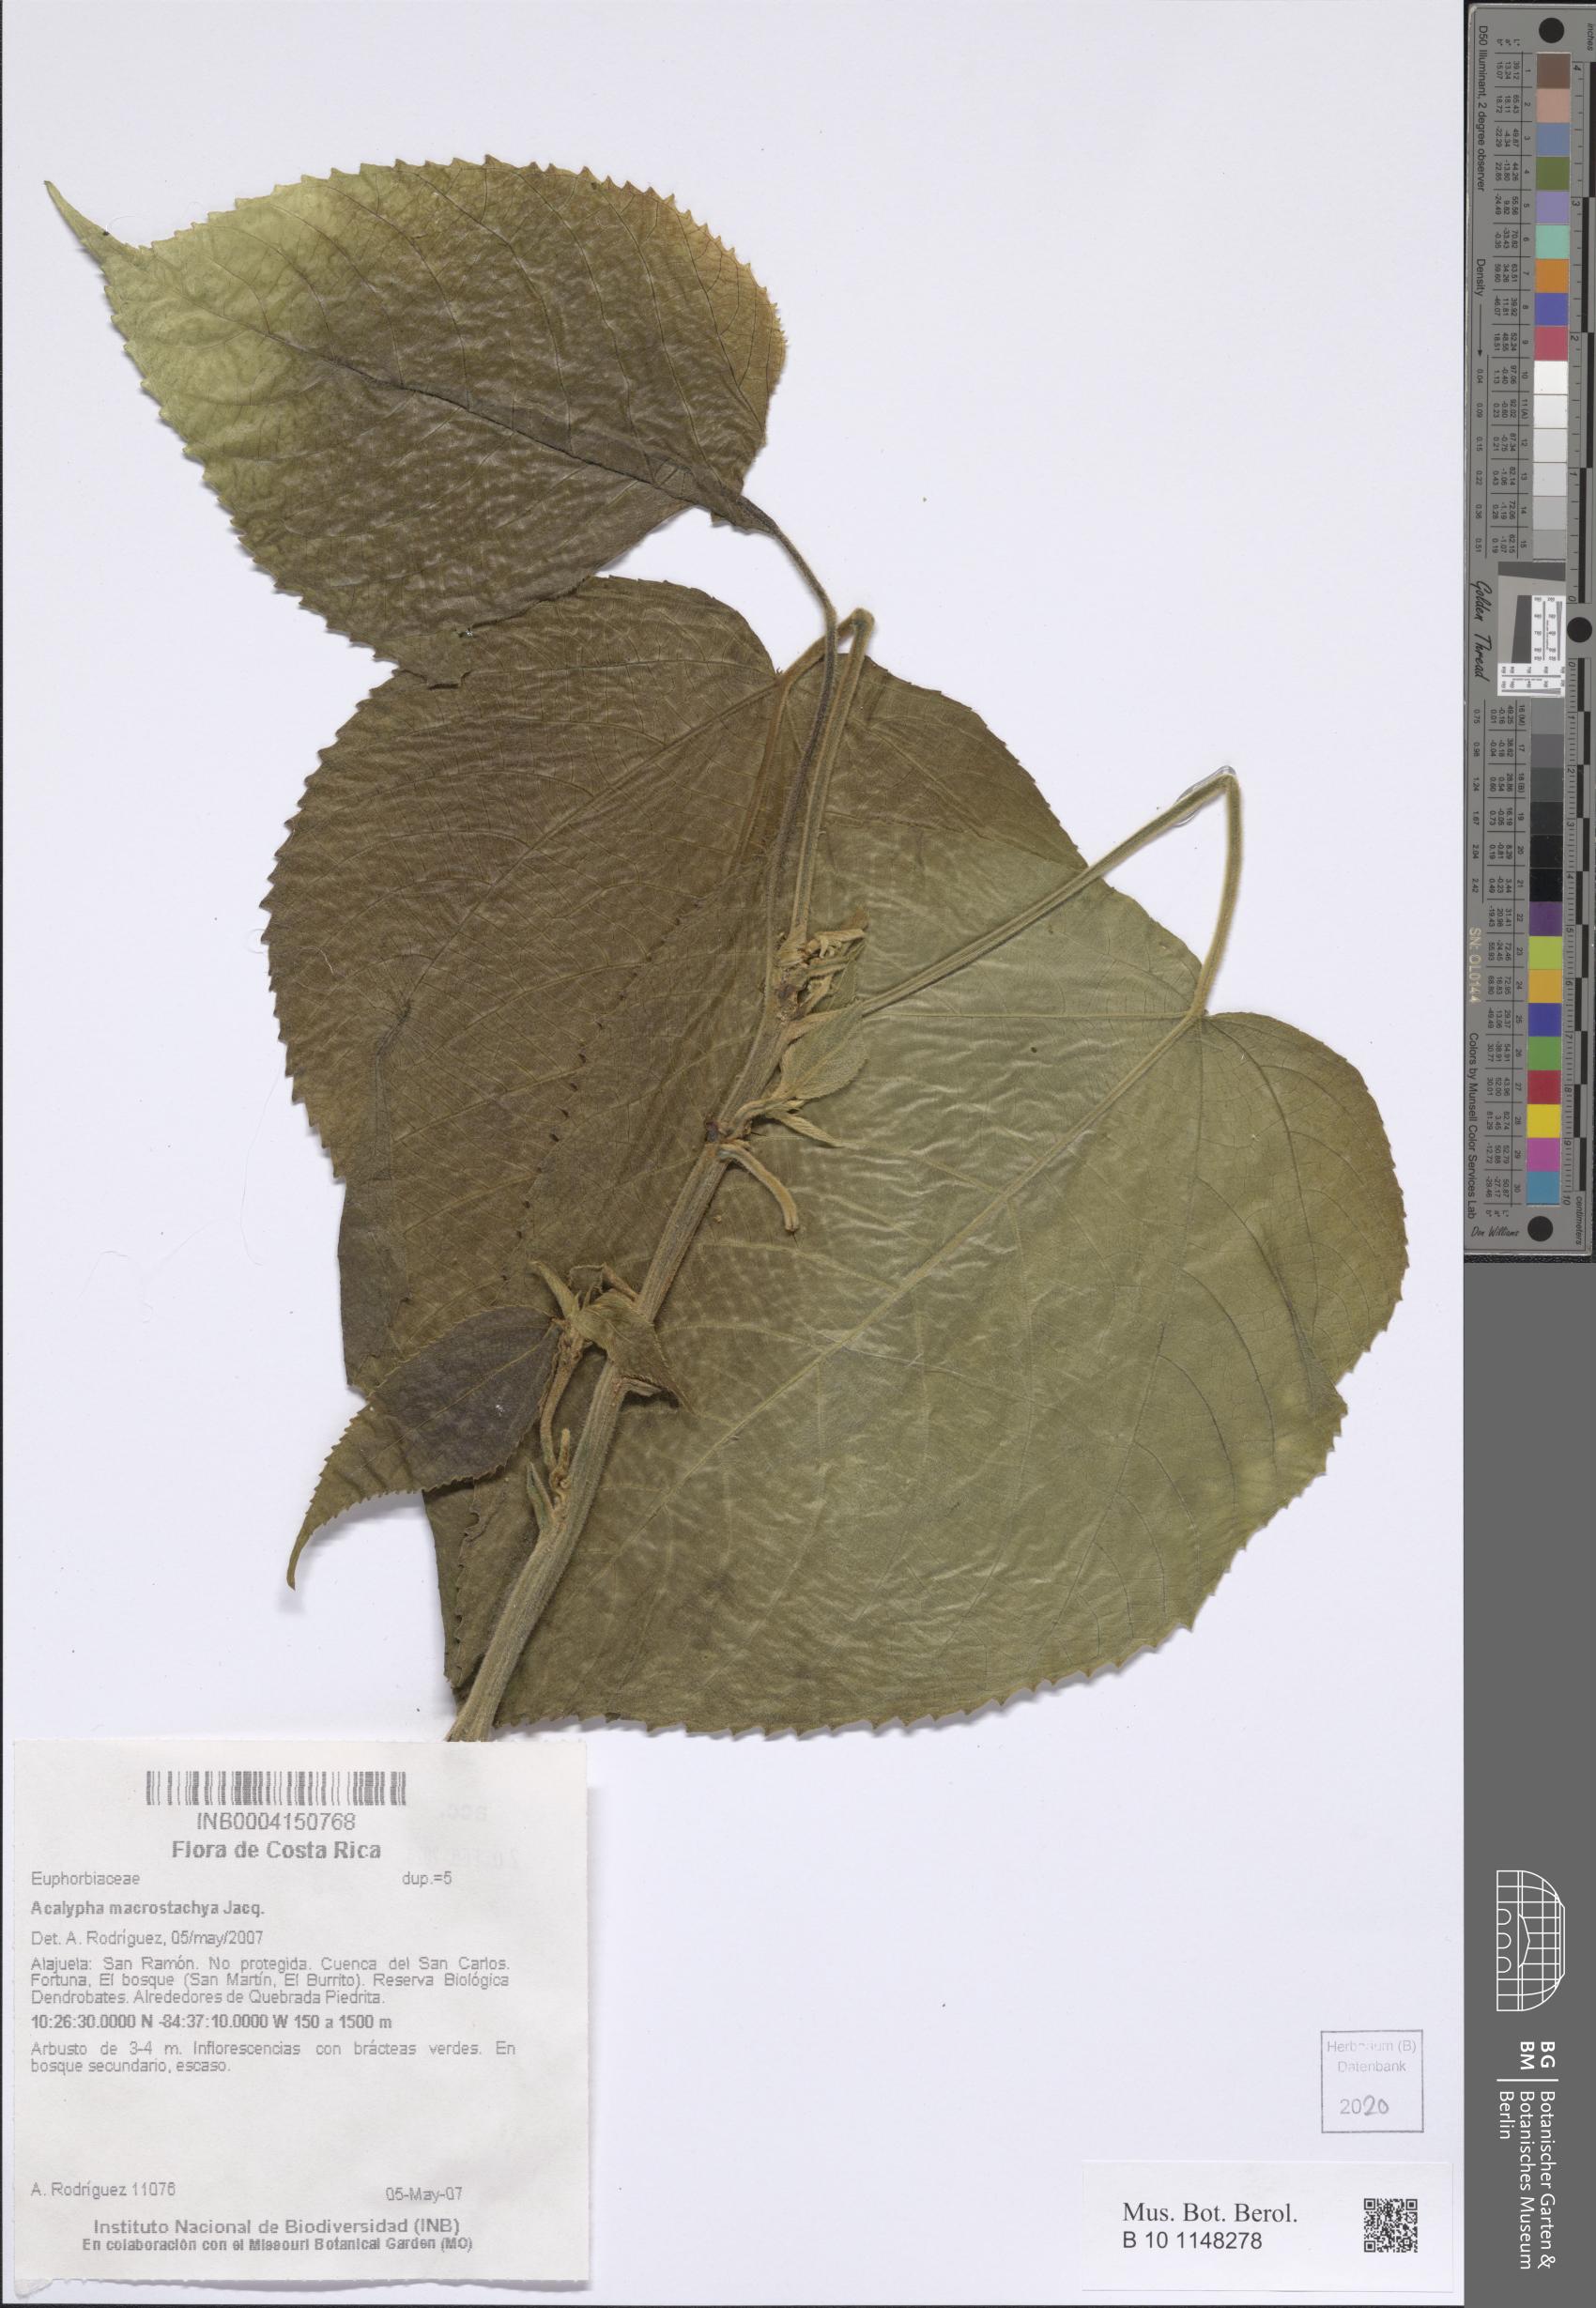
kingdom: Plantae
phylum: Tracheophyta
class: Magnoliopsida
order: Malpighiales
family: Euphorbiaceae
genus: Acalypha
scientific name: Acalypha macrostachya
